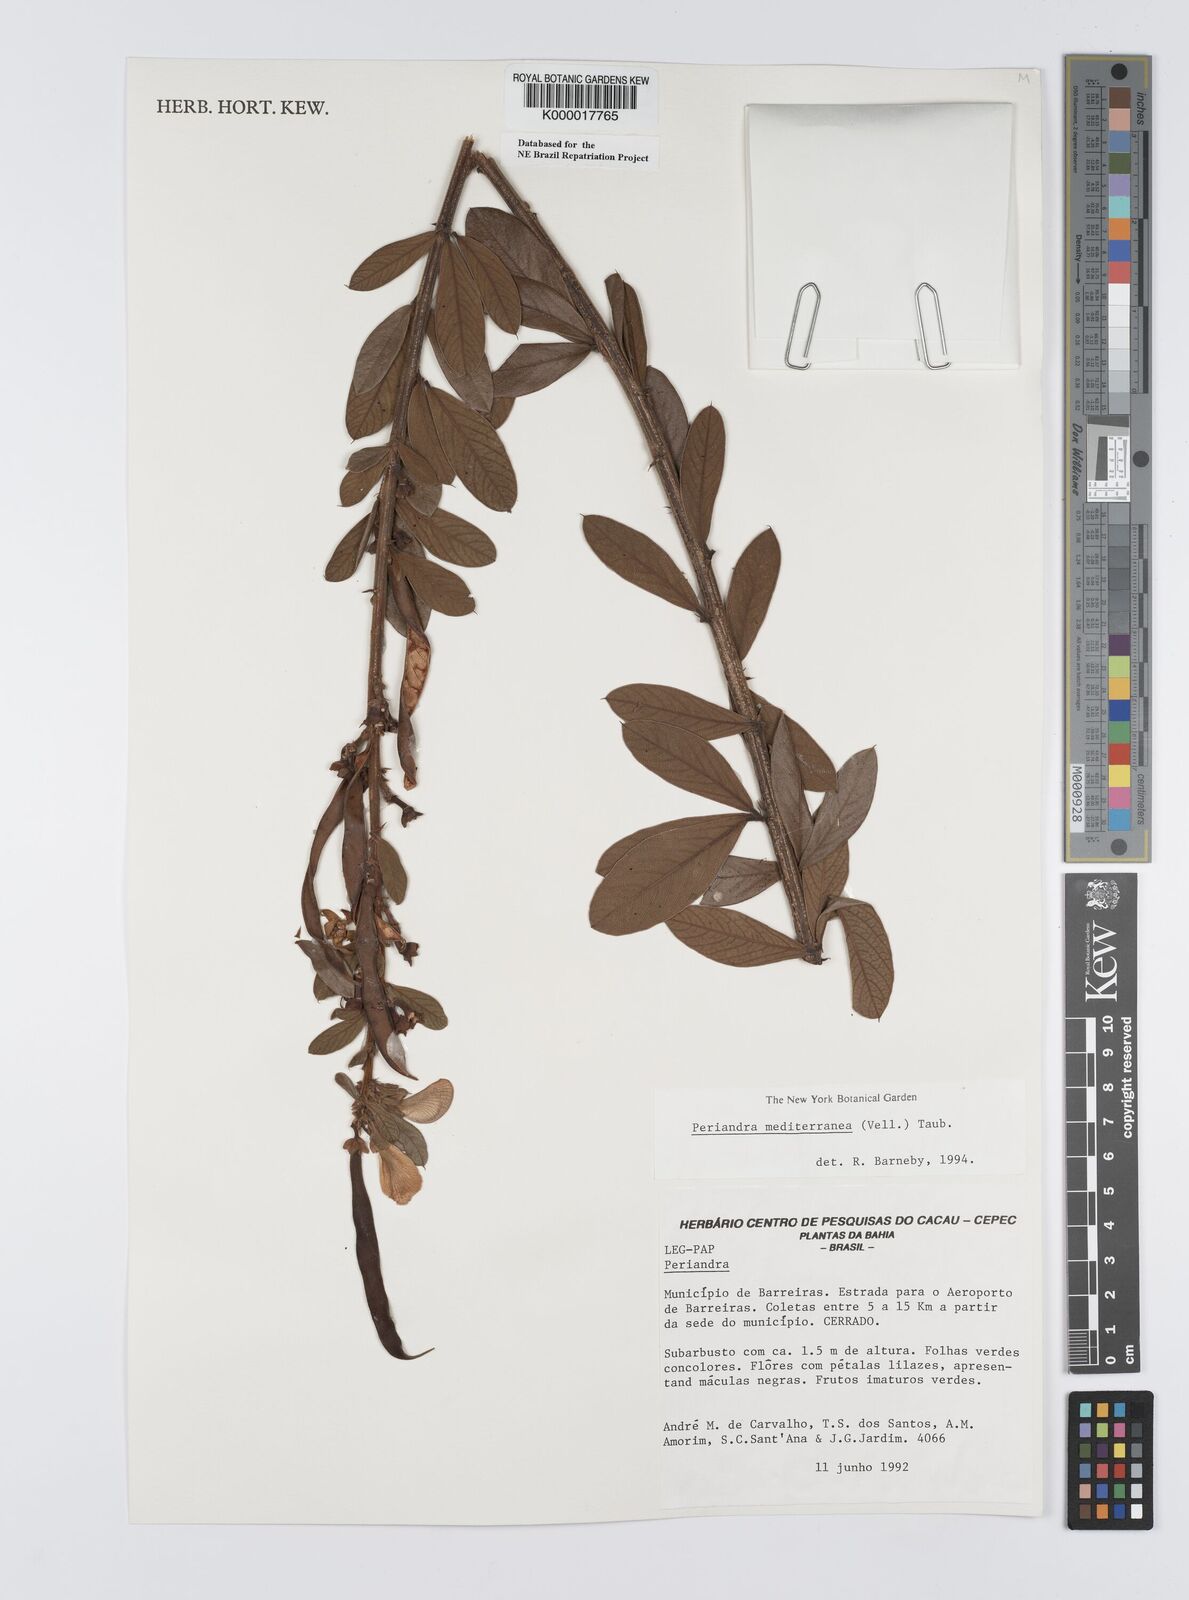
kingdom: Plantae
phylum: Tracheophyta
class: Magnoliopsida
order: Fabales
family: Fabaceae
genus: Periandra
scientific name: Periandra mediterranea
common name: Brazilian licorice
